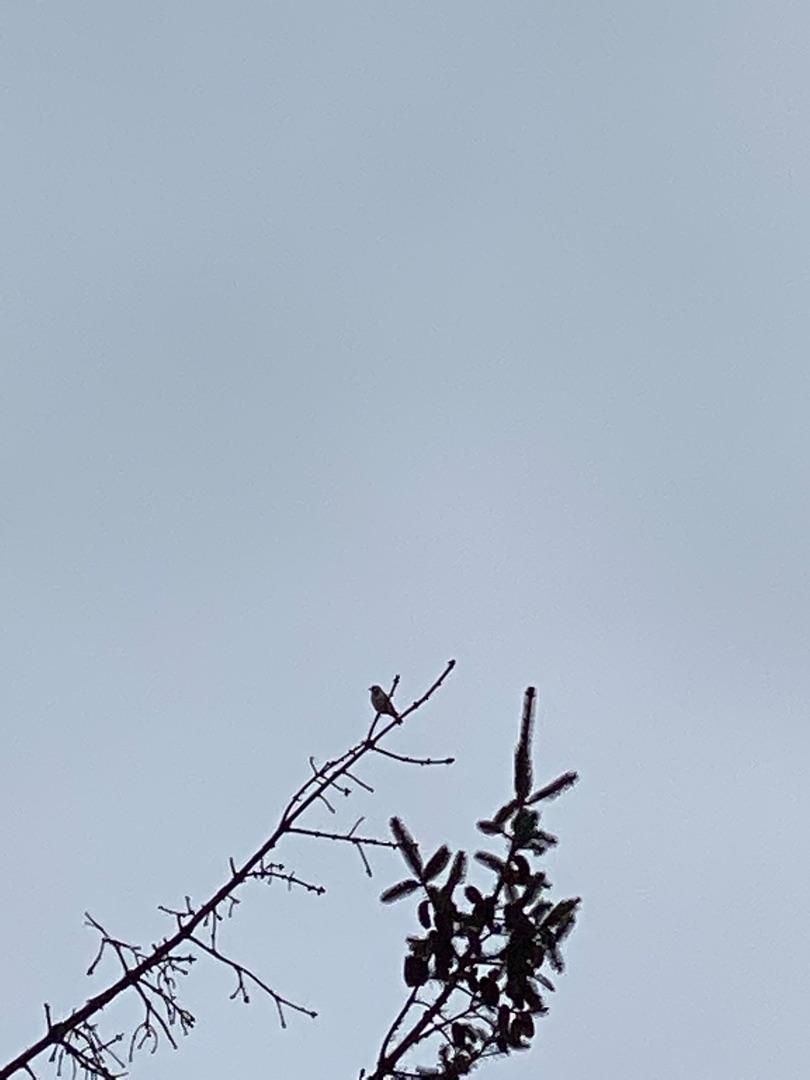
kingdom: Animalia
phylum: Chordata
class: Aves
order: Passeriformes
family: Fringillidae
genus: Carduelis
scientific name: Carduelis carduelis
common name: Stillits
